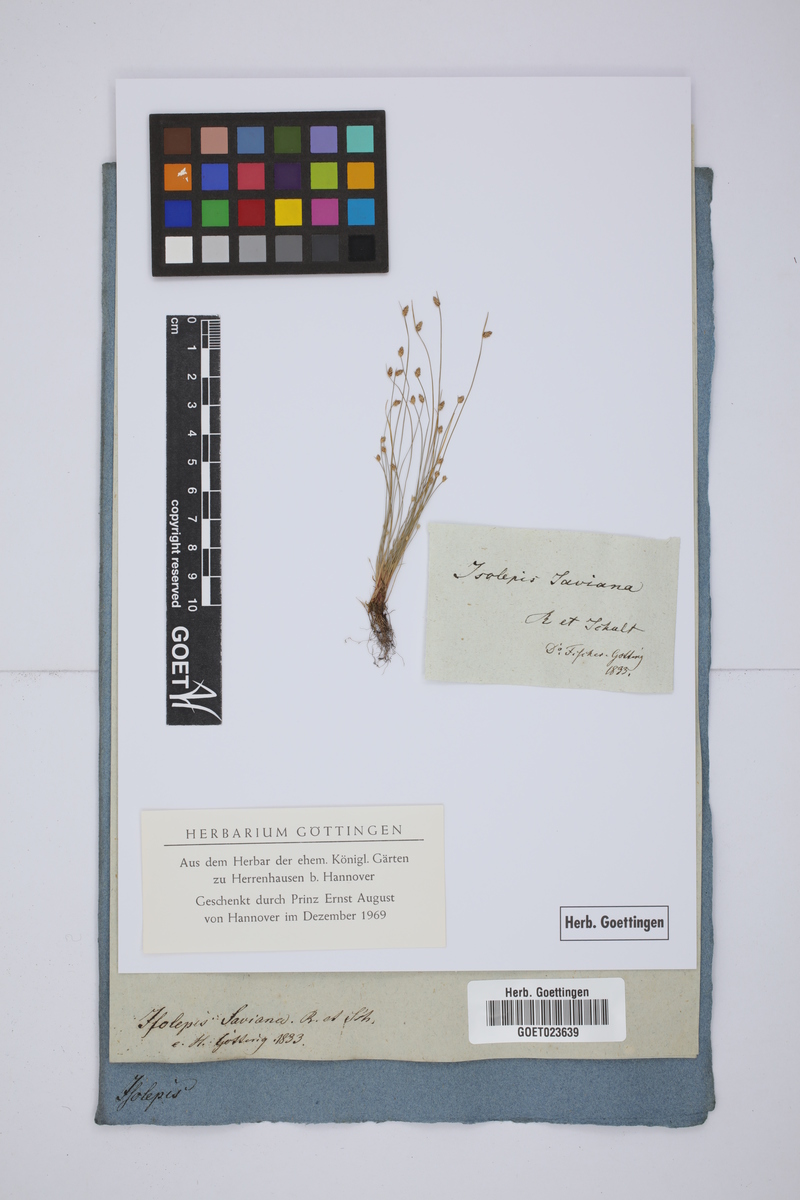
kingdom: Plantae
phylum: Tracheophyta
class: Liliopsida
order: Poales
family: Cyperaceae
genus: Isolepis
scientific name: Isolepis cernua
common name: Slender club-rush
